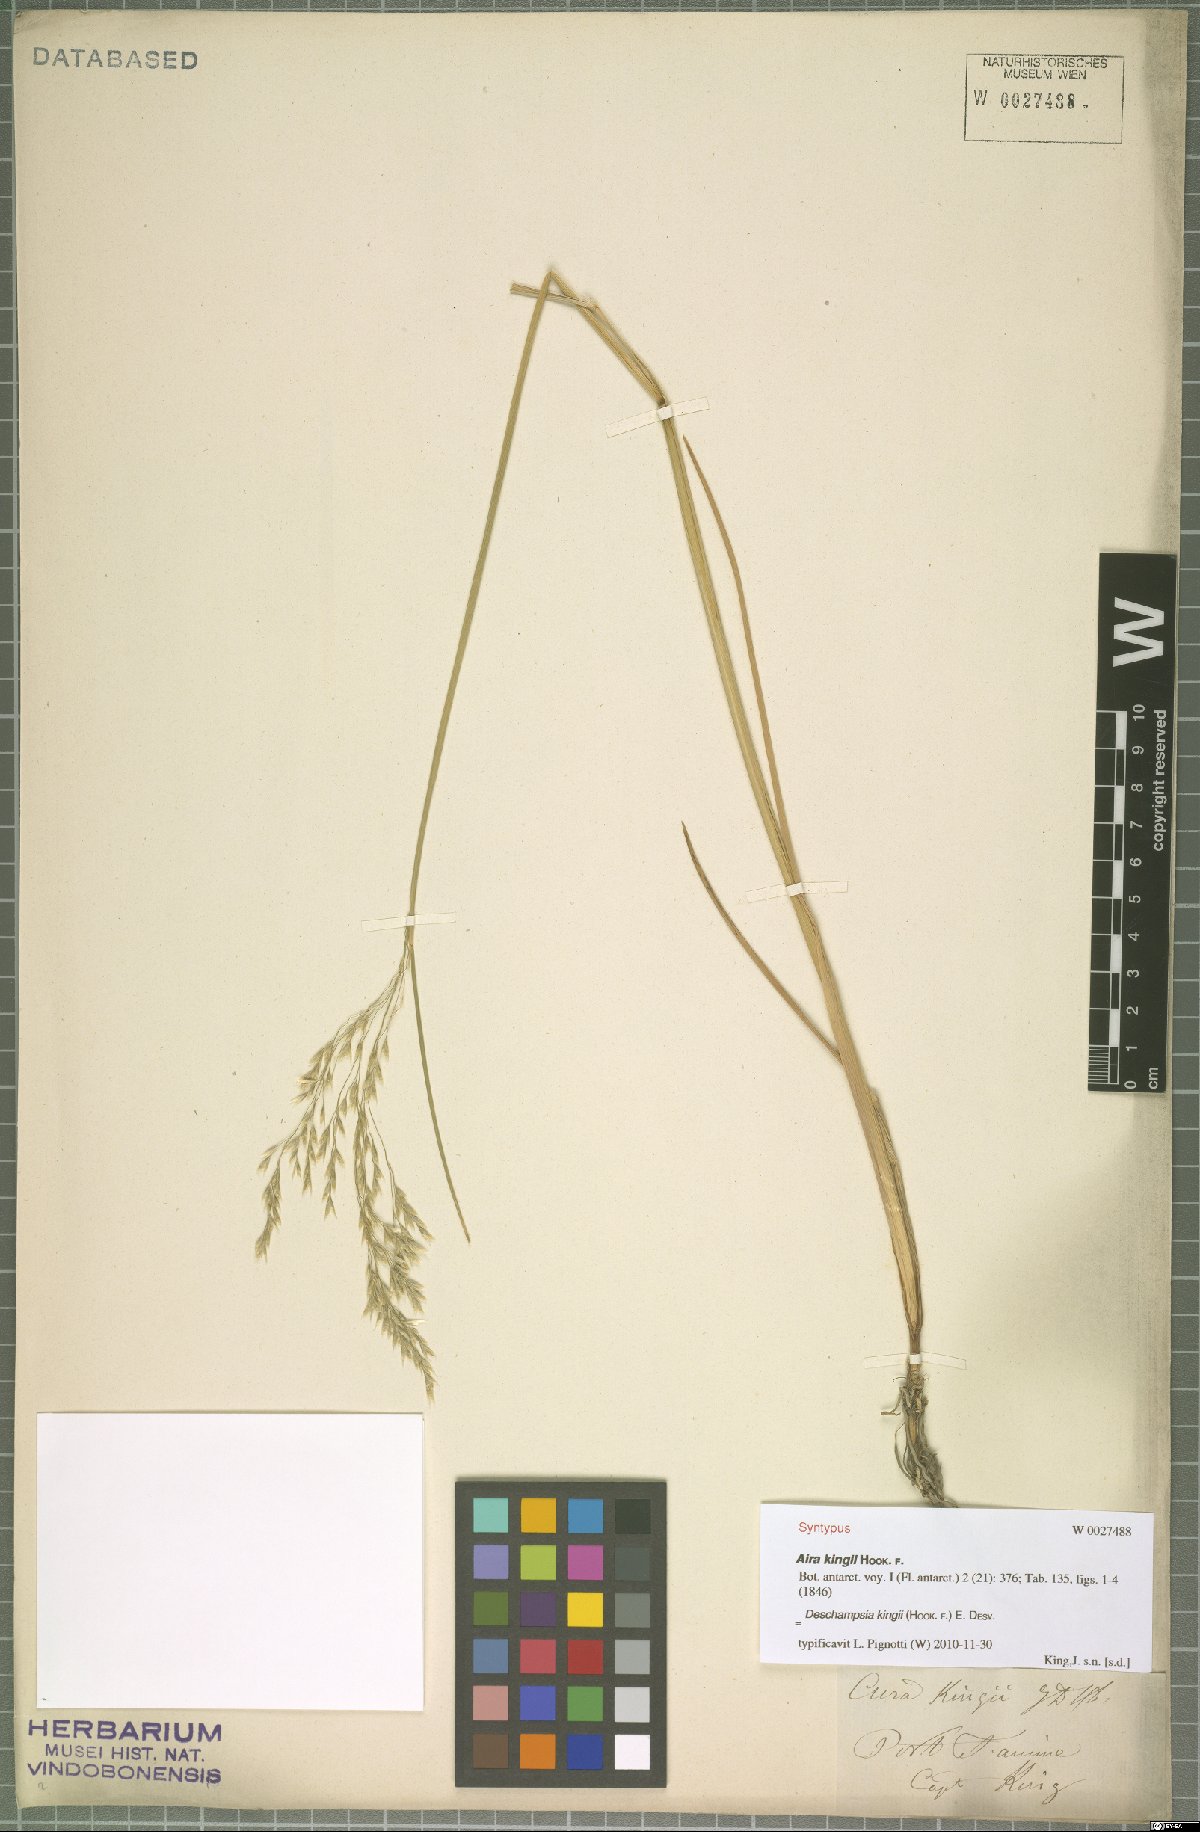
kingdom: Plantae
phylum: Tracheophyta
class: Liliopsida
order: Poales
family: Poaceae
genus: Deschampsia
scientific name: Deschampsia kingii
